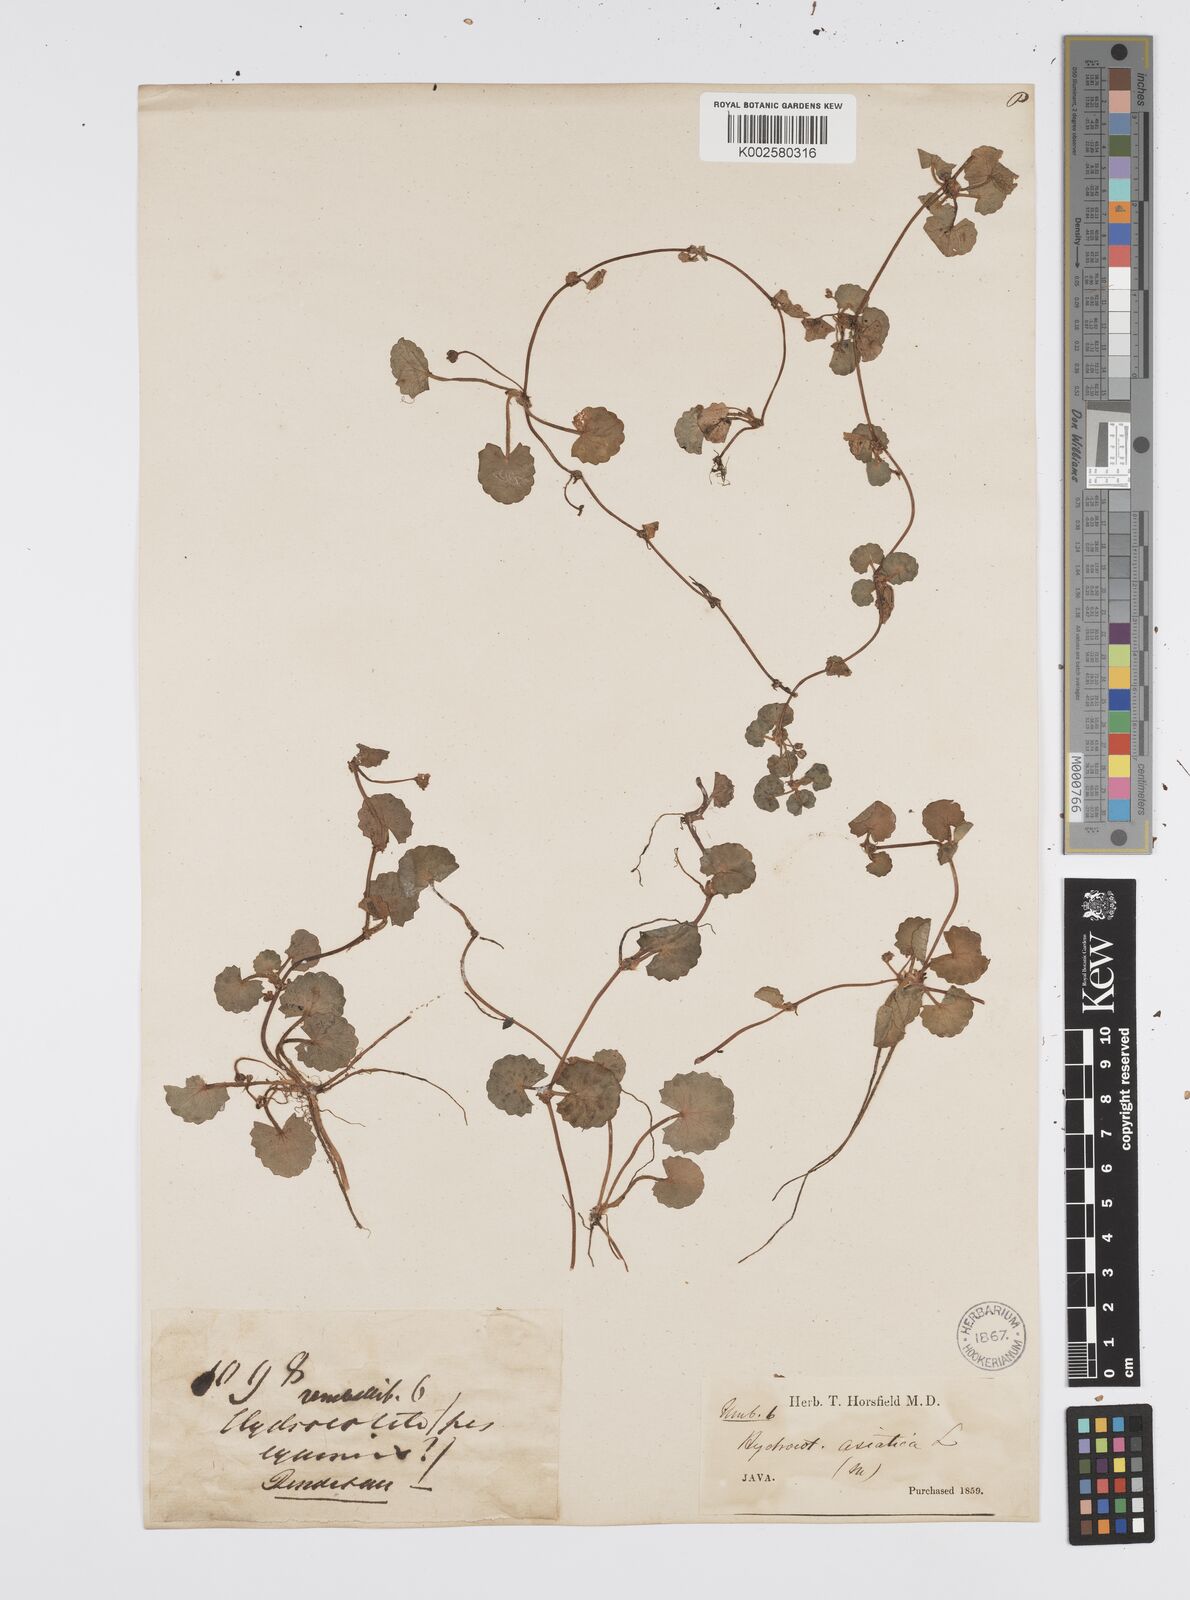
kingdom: Plantae
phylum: Tracheophyta
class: Magnoliopsida
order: Apiales
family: Apiaceae
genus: Centella
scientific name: Centella asiatica
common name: Spadeleaf
